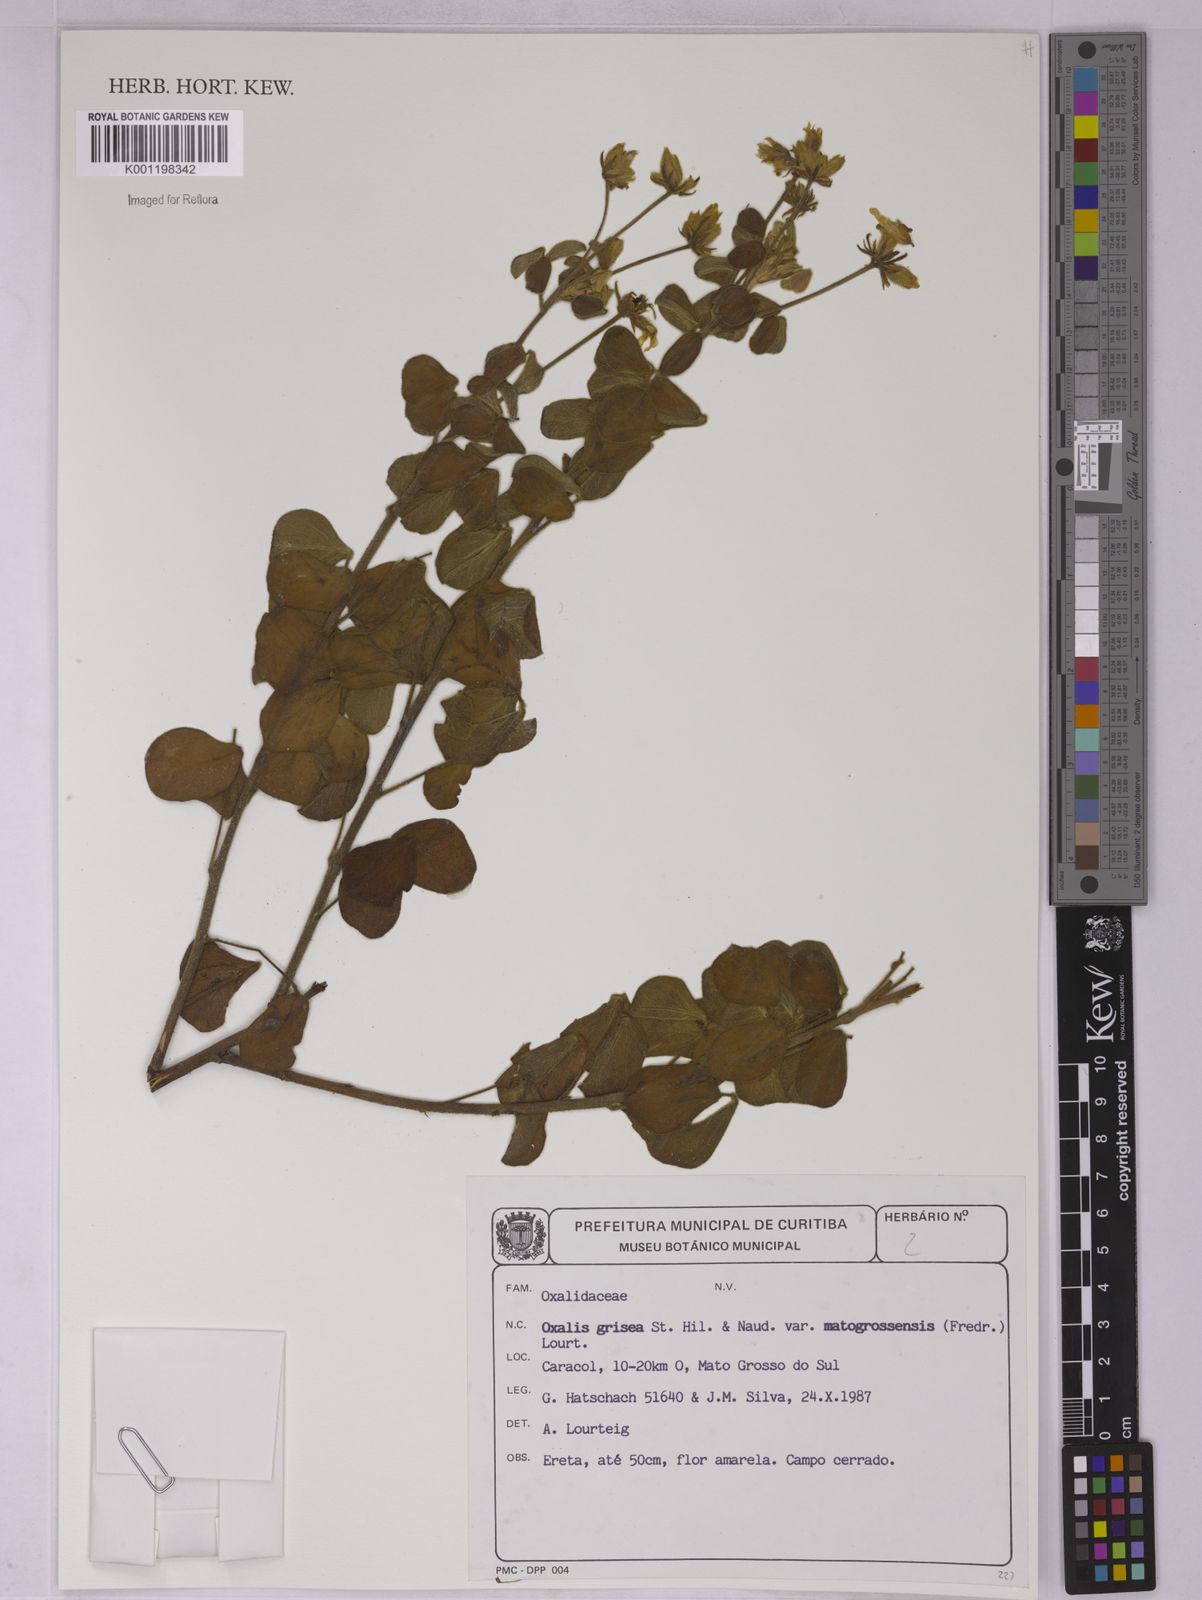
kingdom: Plantae
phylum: Tracheophyta
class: Magnoliopsida
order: Oxalidales
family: Oxalidaceae
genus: Oxalis
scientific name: Oxalis grisea
